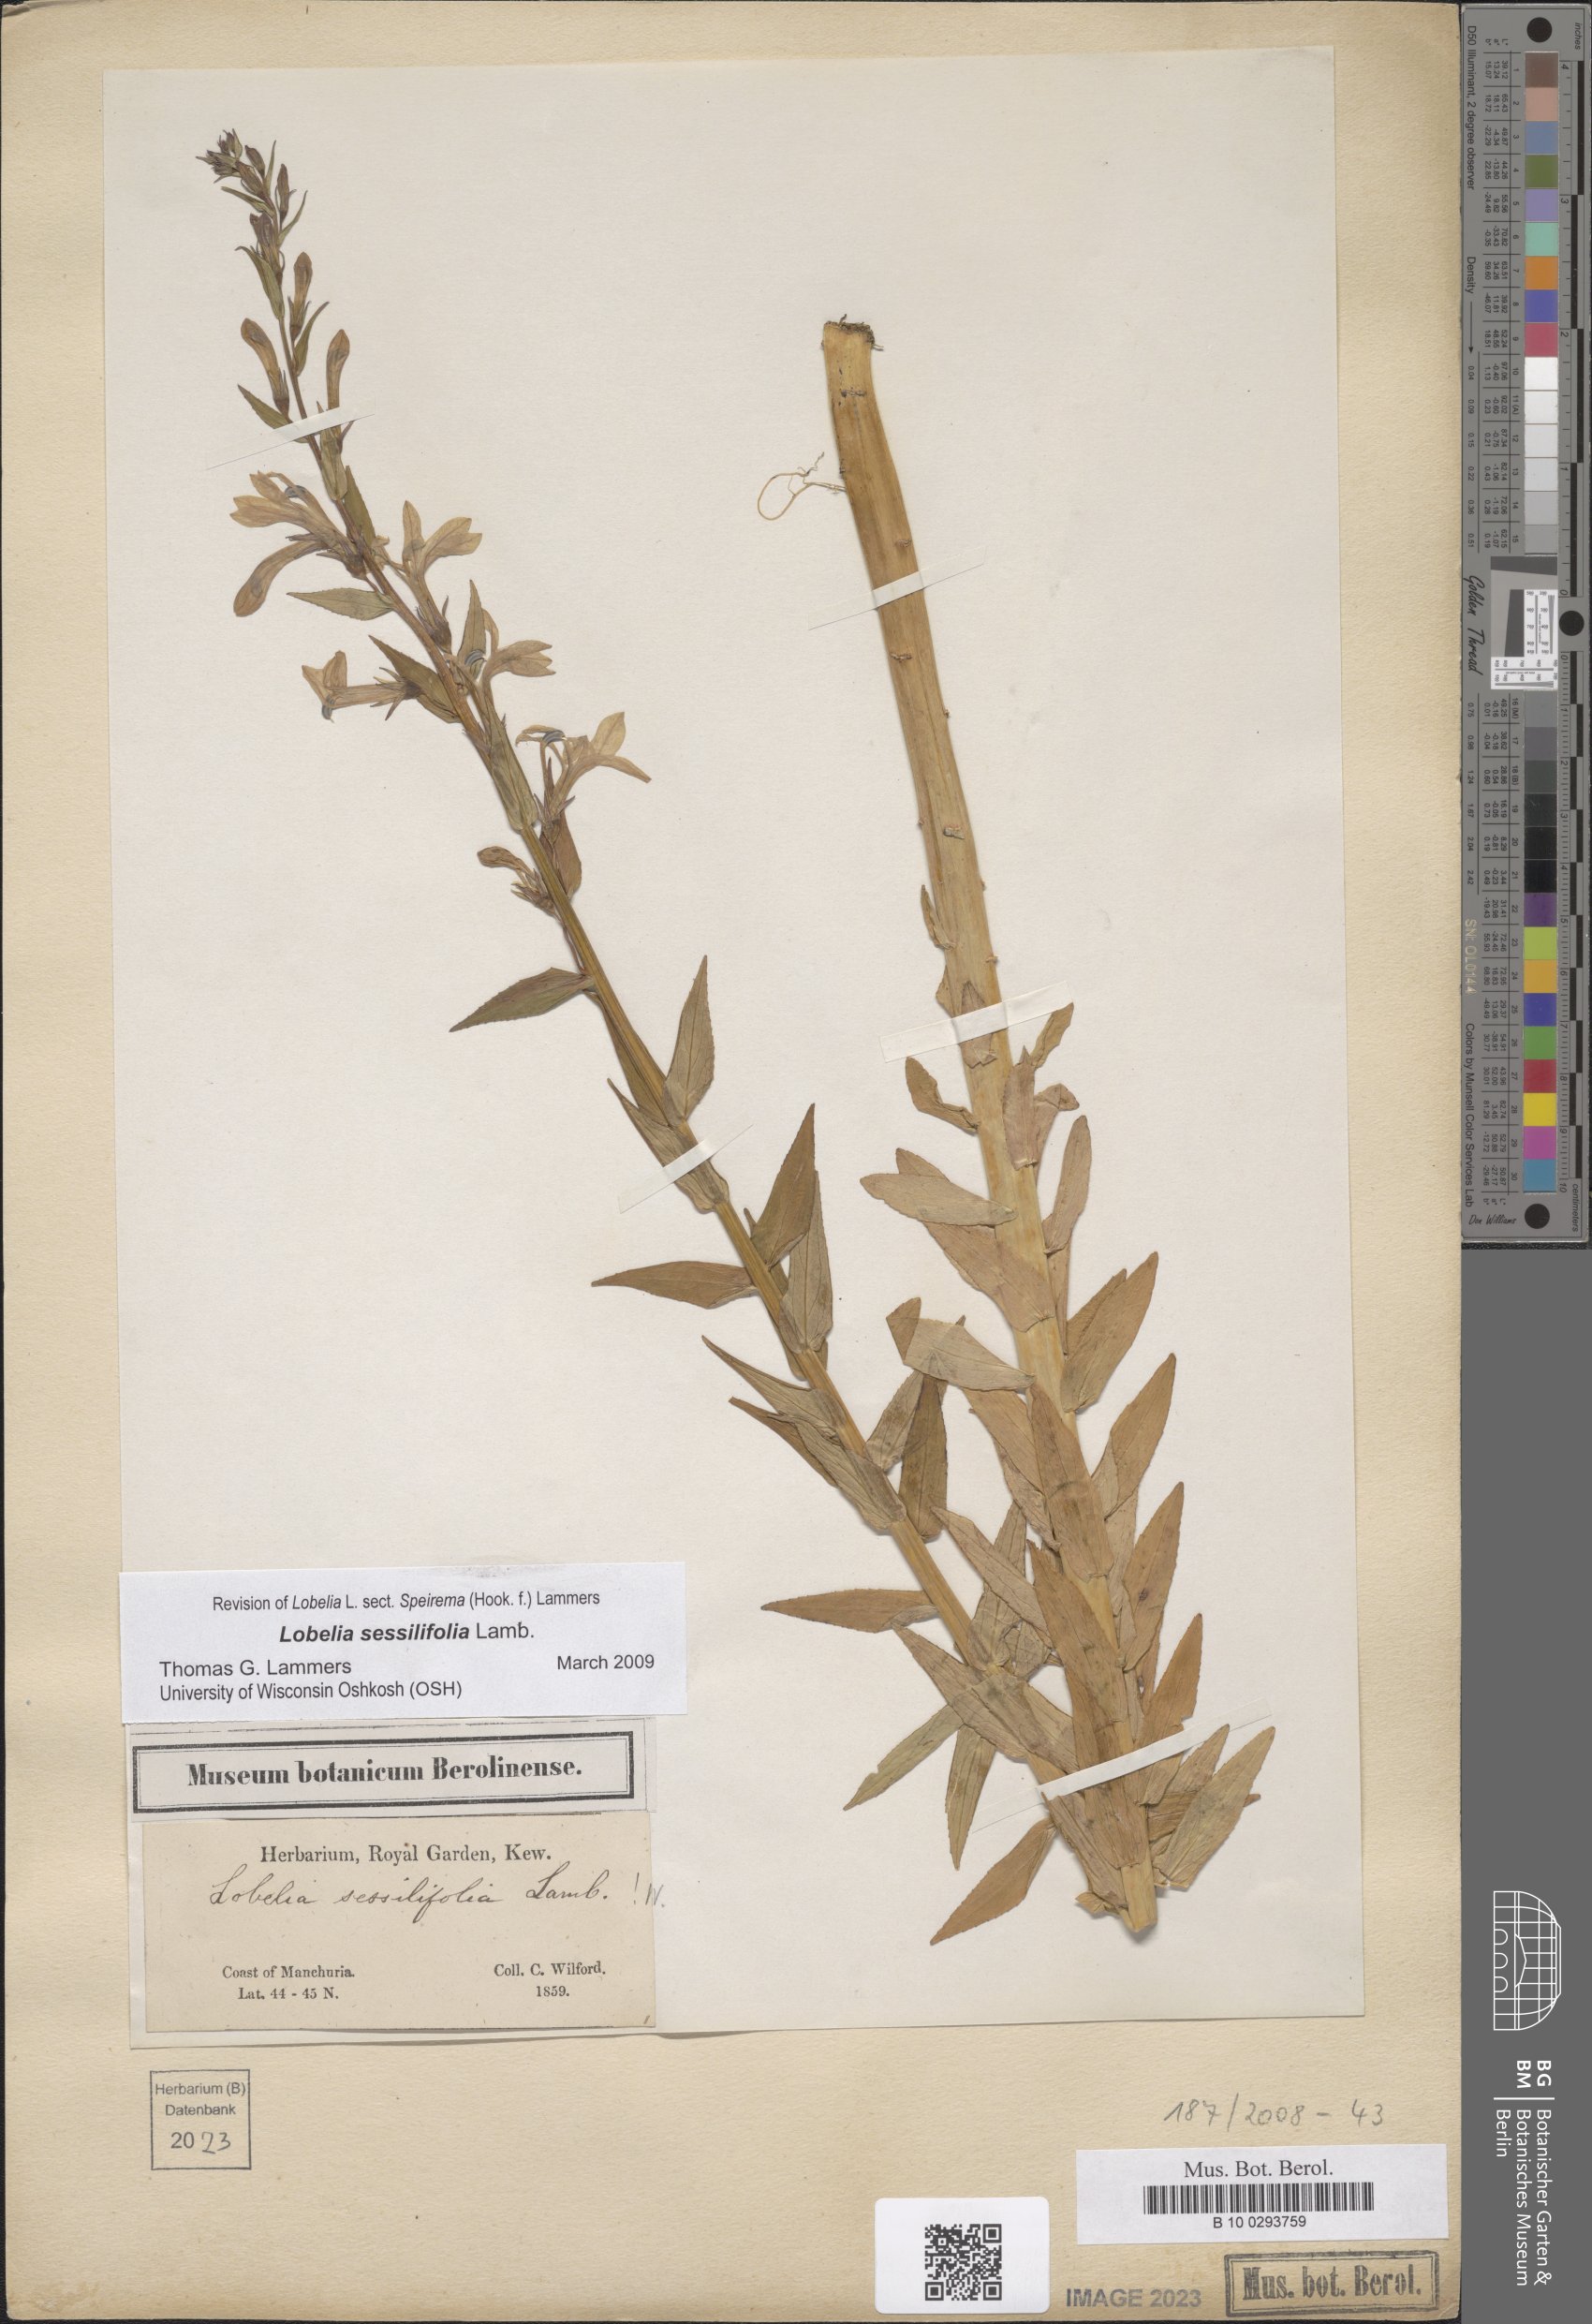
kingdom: Plantae
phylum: Tracheophyta
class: Magnoliopsida
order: Asterales
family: Campanulaceae
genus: Lobelia
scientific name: Lobelia sessilifolia
